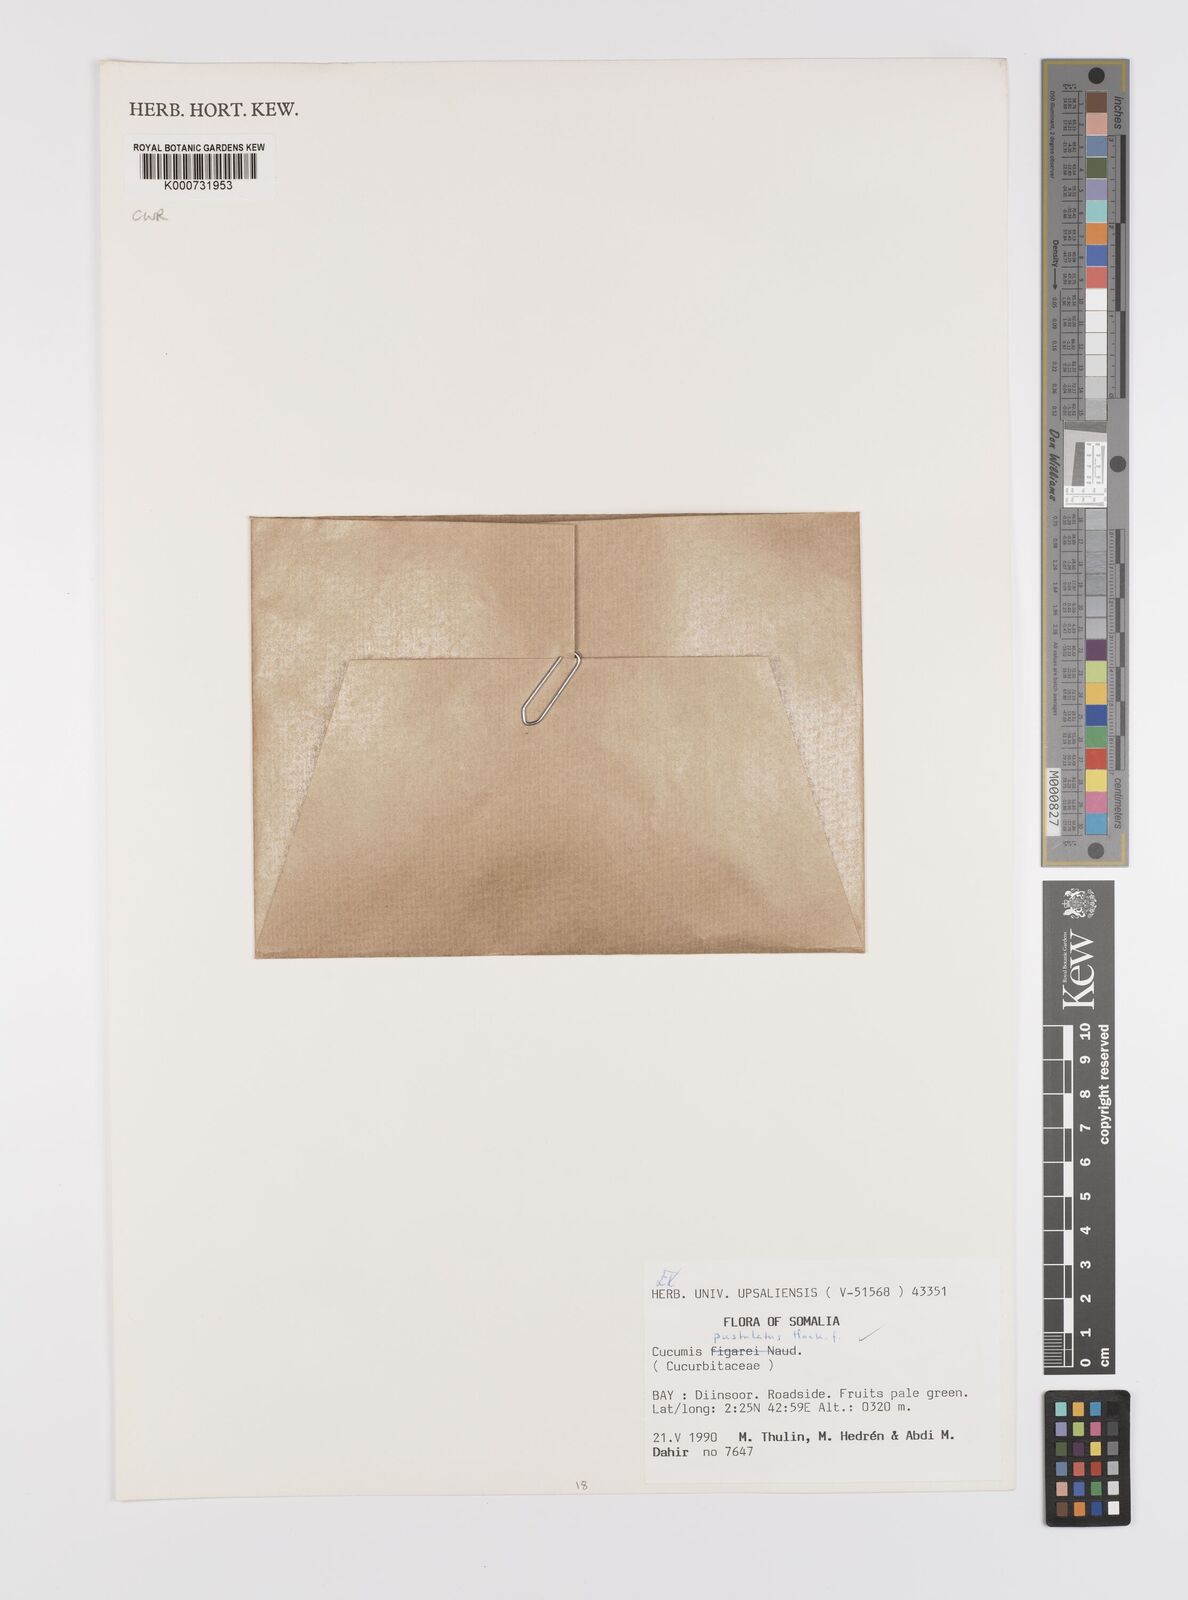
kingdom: Plantae
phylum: Tracheophyta
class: Magnoliopsida
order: Cucurbitales
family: Cucurbitaceae
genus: Cucumis
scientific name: Cucumis pustulatus
